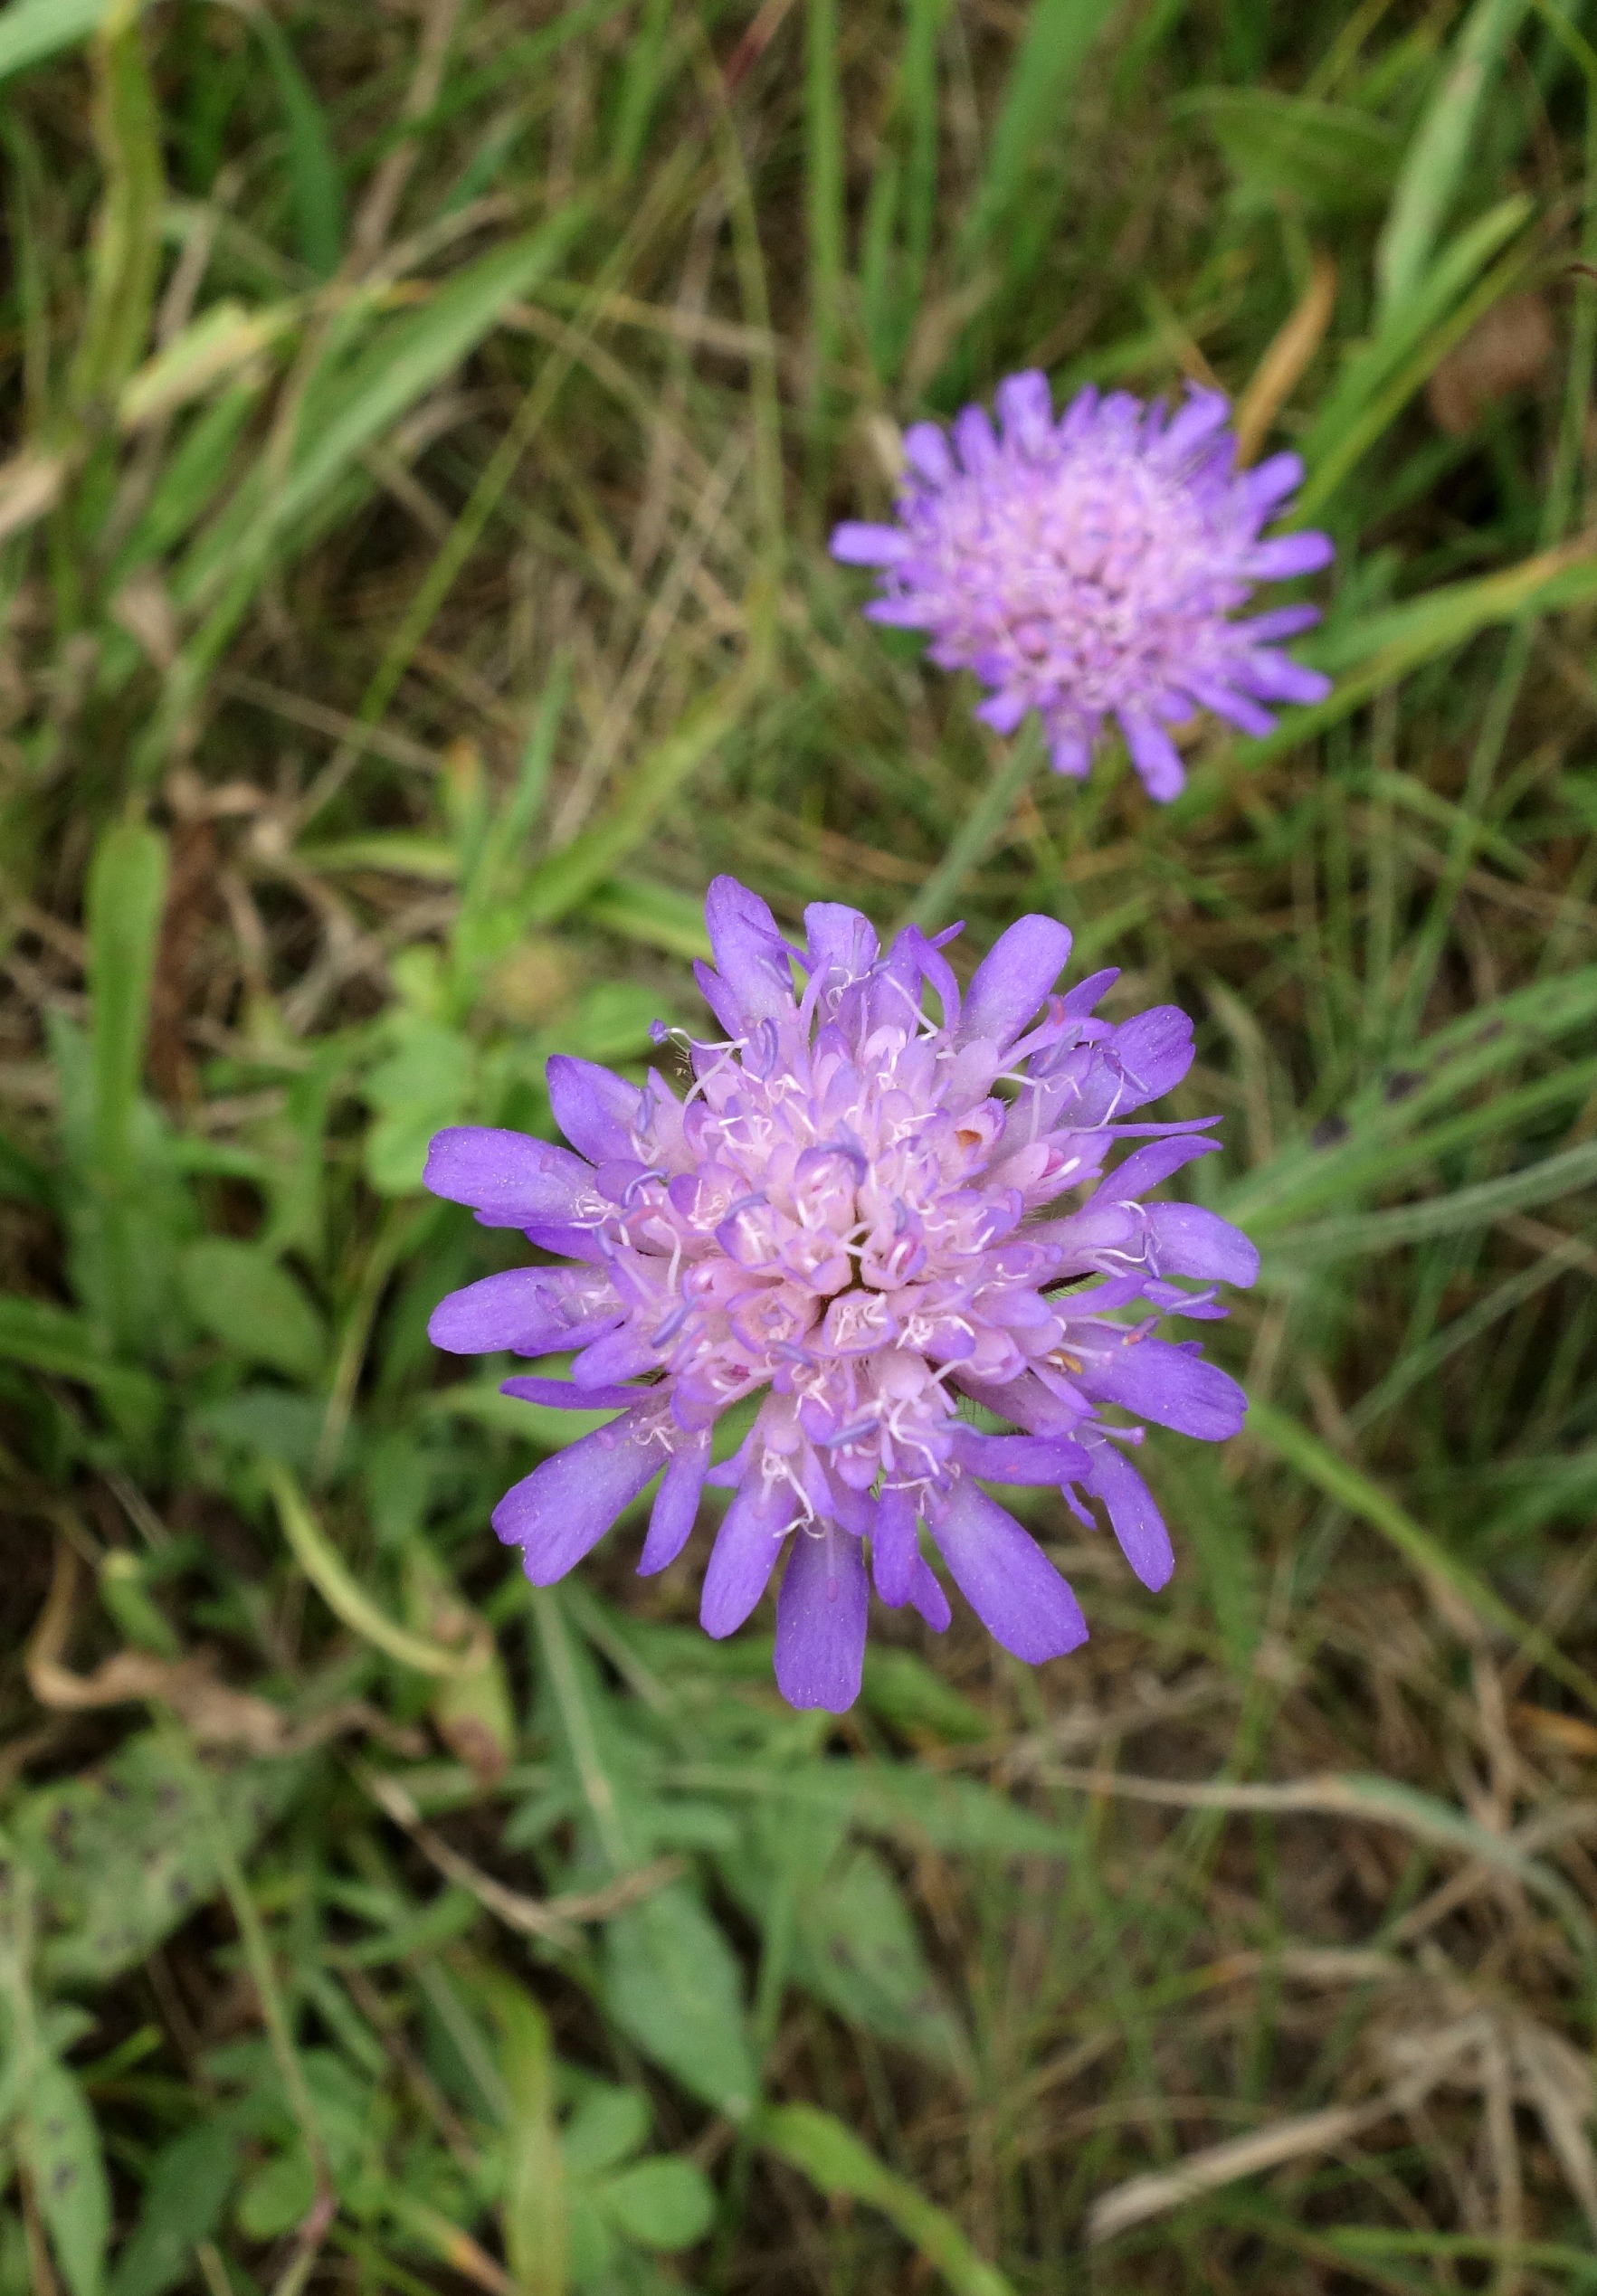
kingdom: Plantae
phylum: Tracheophyta
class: Magnoliopsida
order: Dipsacales
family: Caprifoliaceae
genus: Knautia
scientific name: Knautia arvensis
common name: Blåhat
